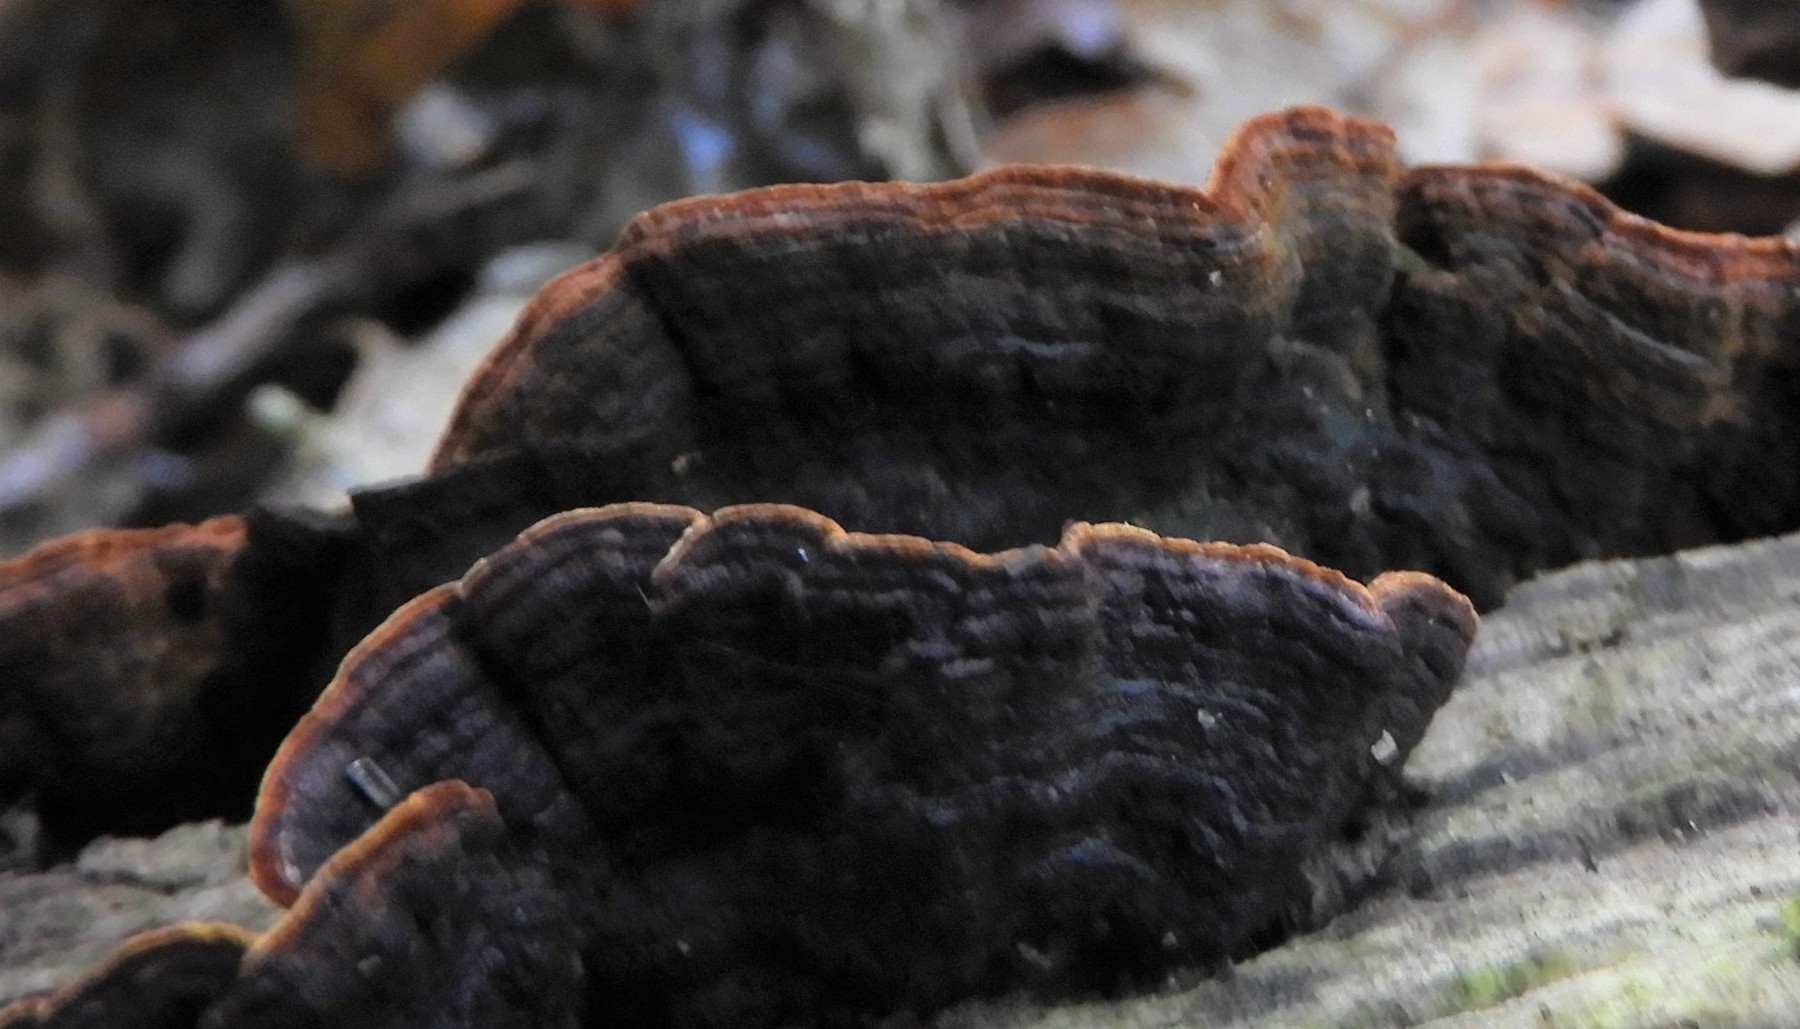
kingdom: Fungi
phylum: Basidiomycota
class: Agaricomycetes
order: Hymenochaetales
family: Hymenochaetaceae
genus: Hymenochaete
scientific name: Hymenochaete rubiginosa
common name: stiv ruslædersvamp
